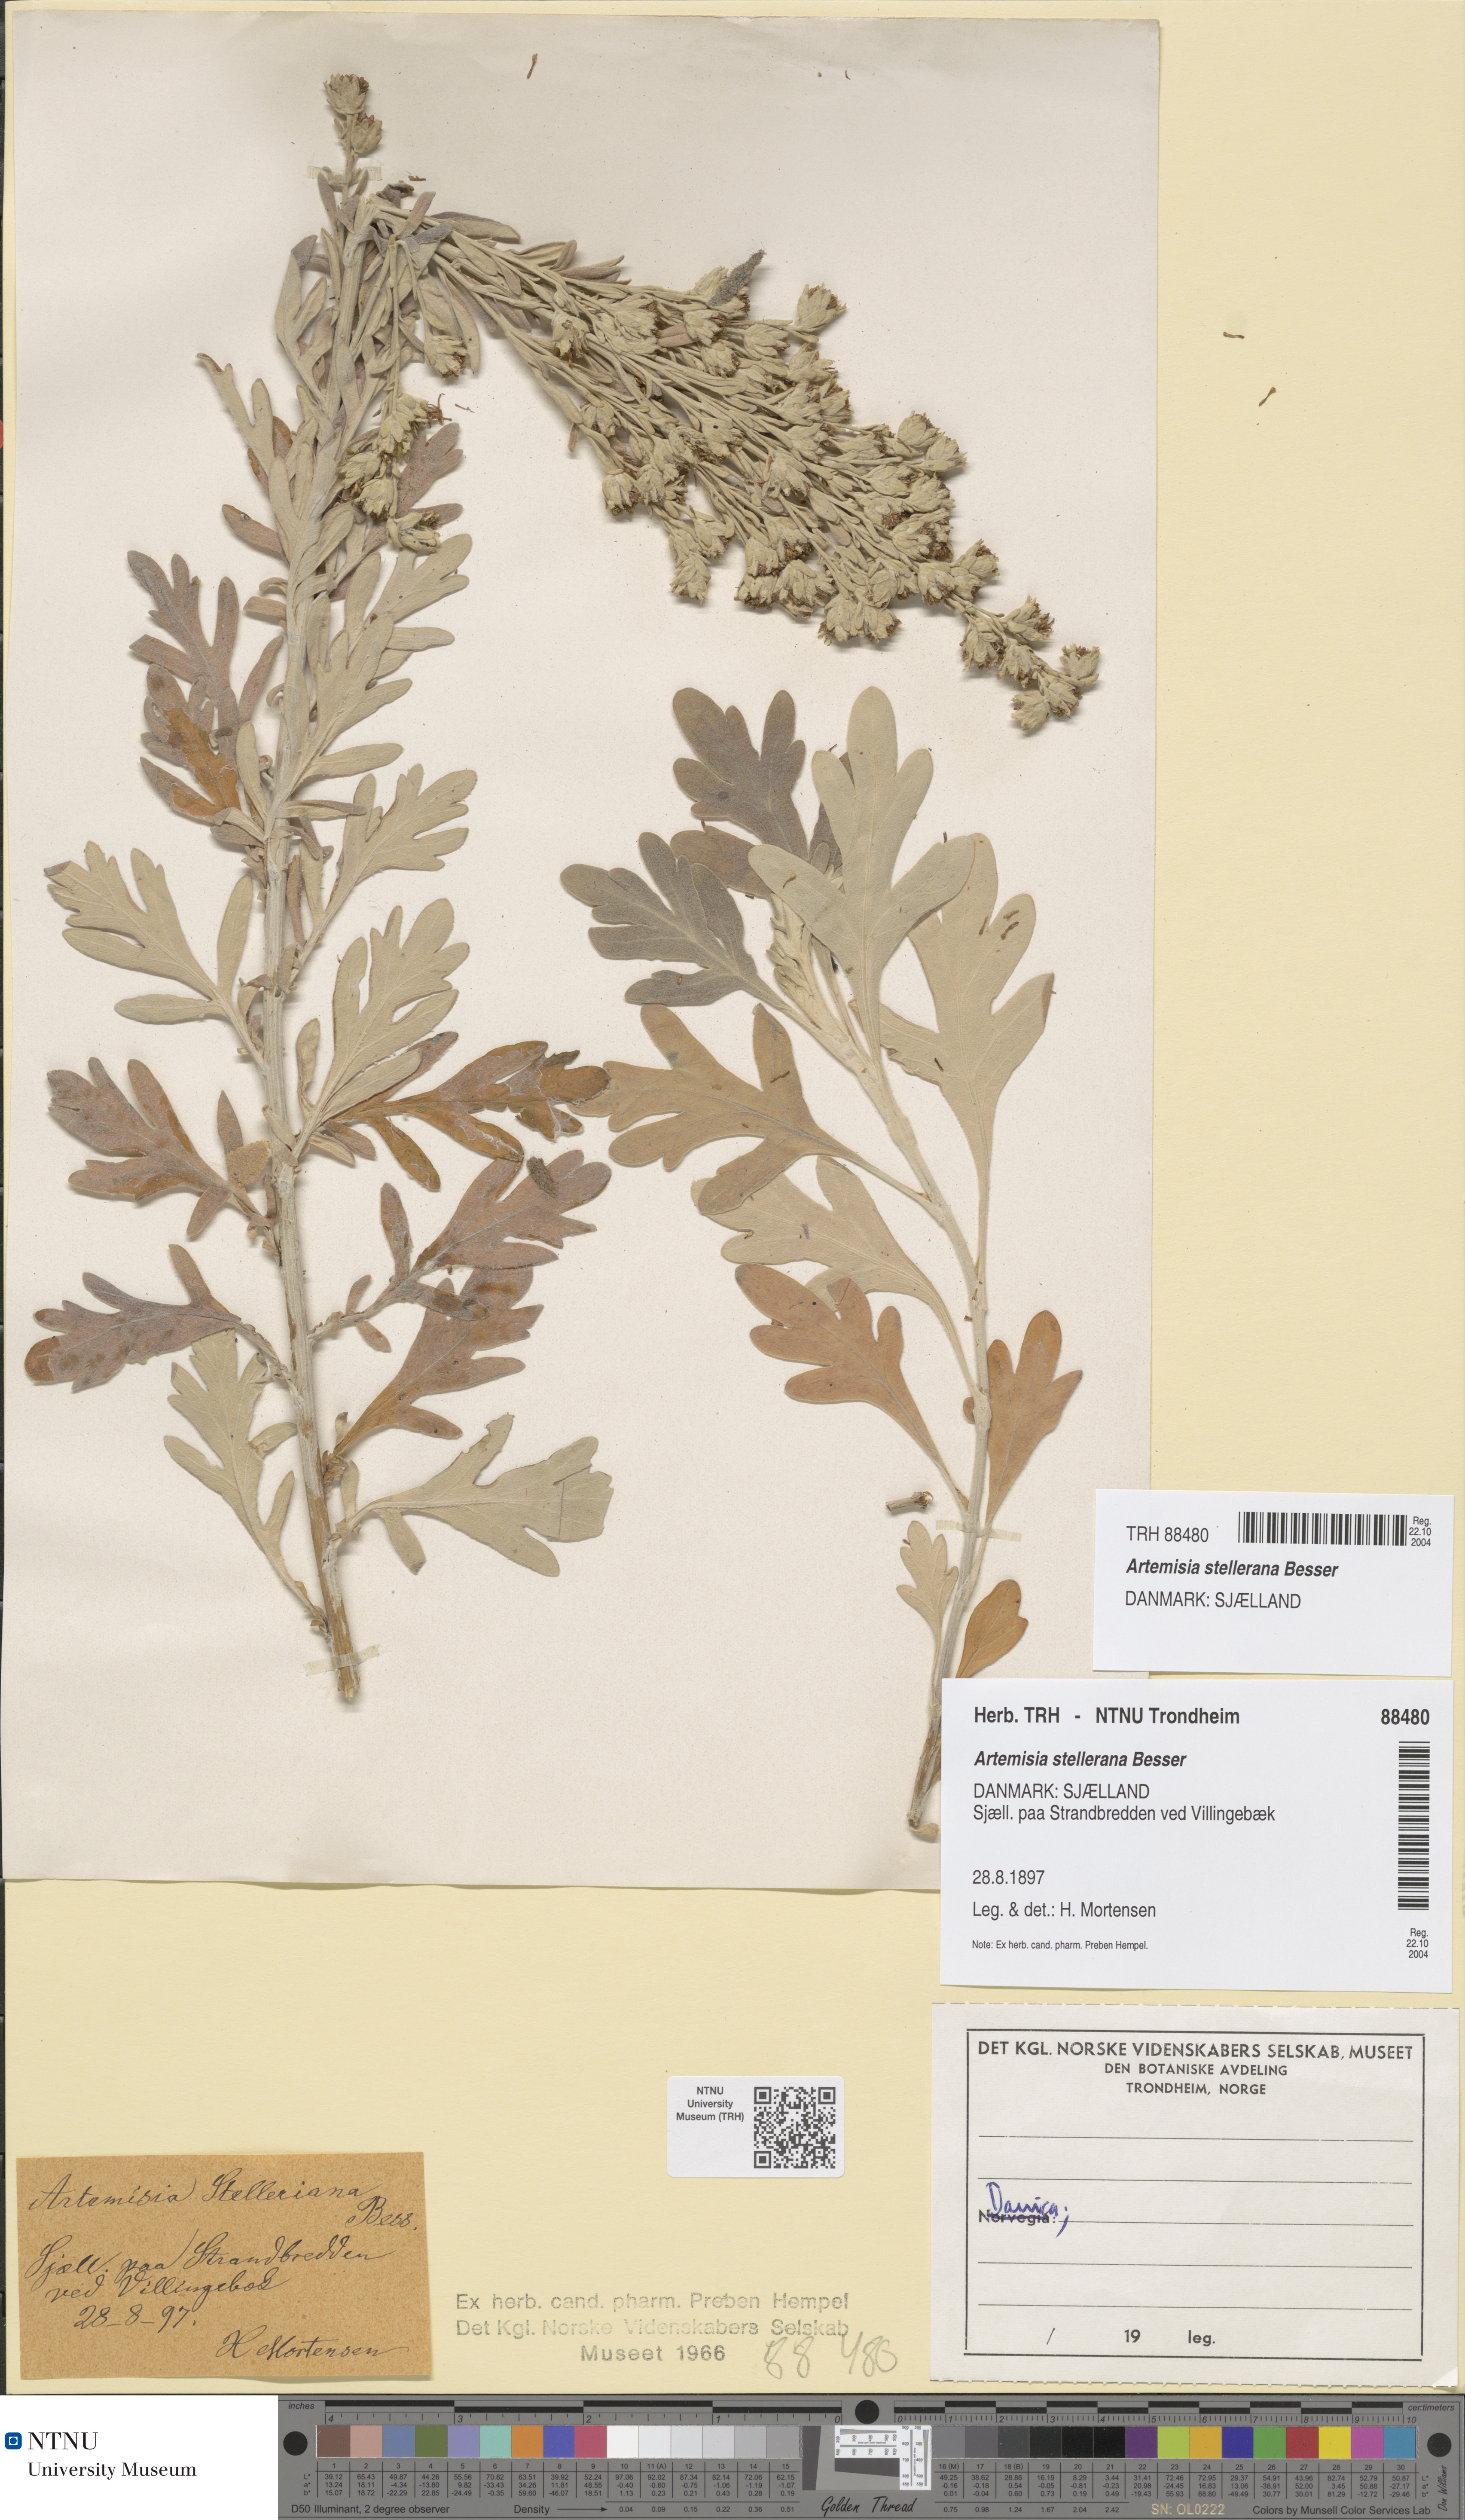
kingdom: Plantae
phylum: Tracheophyta
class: Magnoliopsida
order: Asterales
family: Asteraceae
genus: Artemisia
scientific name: Artemisia stelleriana
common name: Beach wormwood
